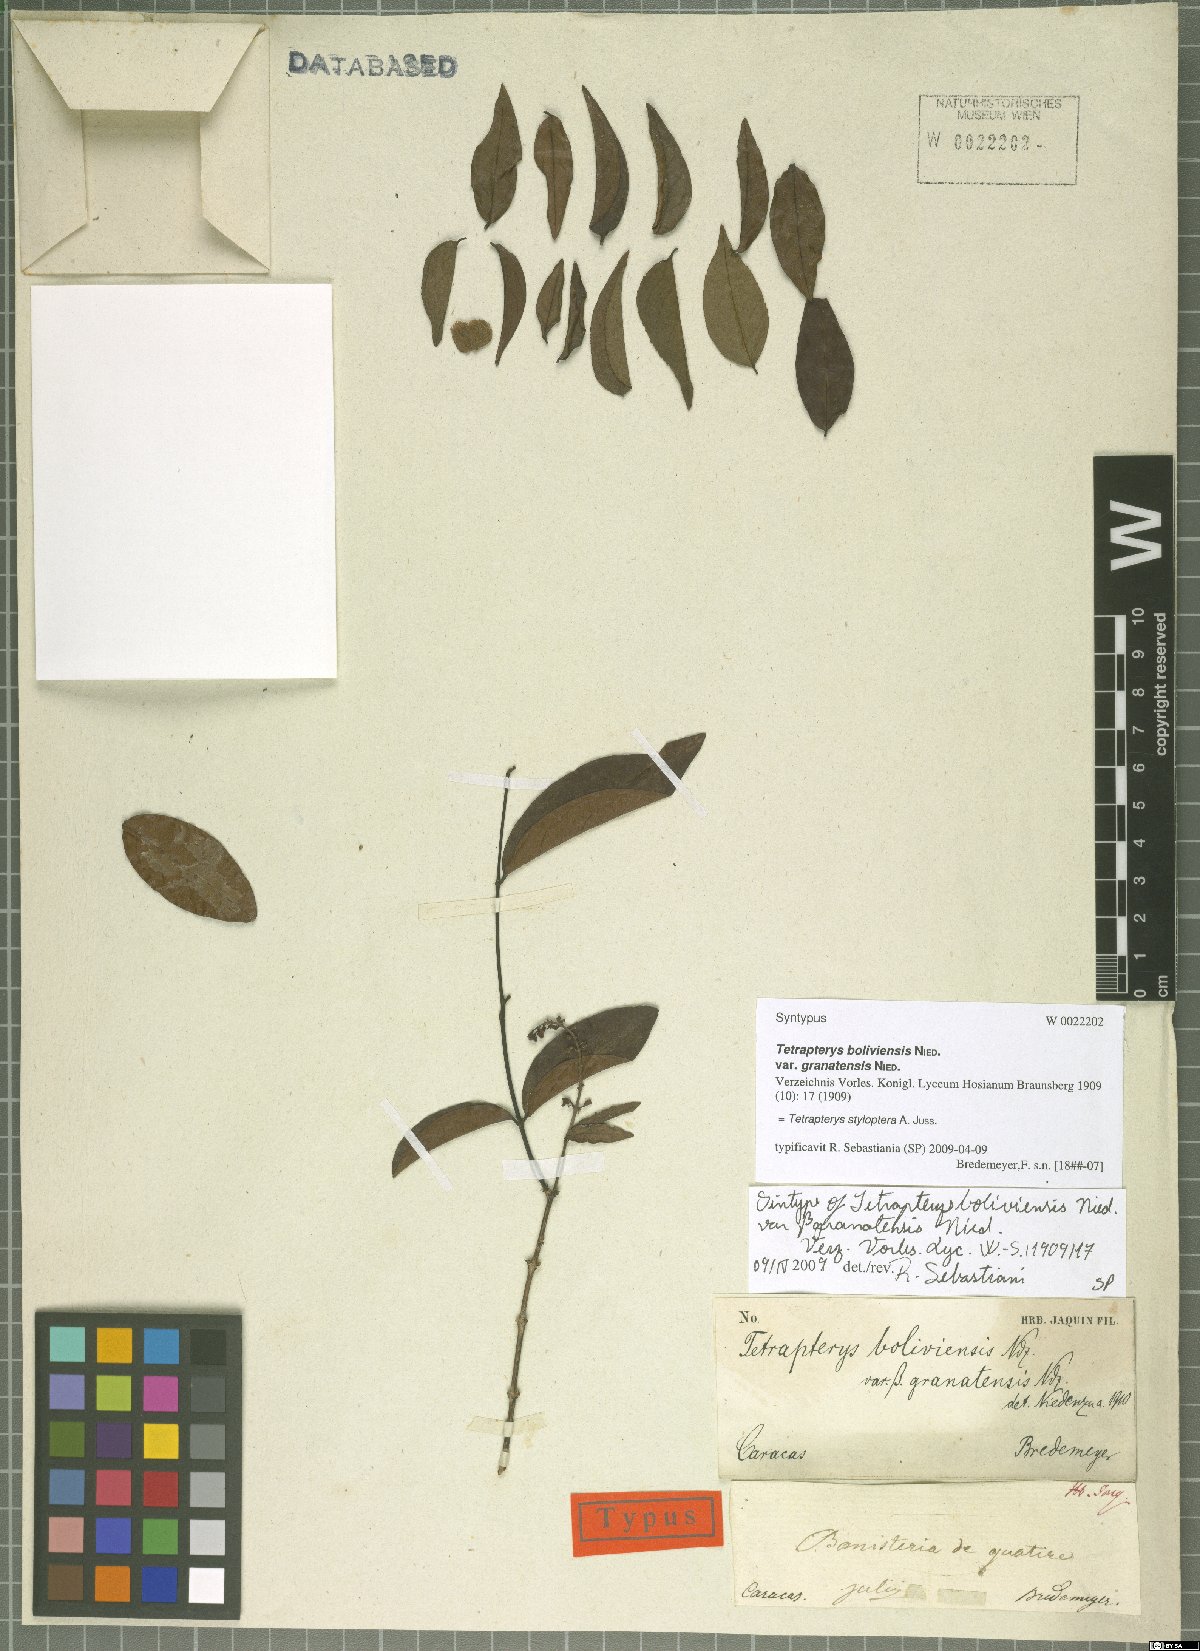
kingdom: Plantae
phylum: Tracheophyta
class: Magnoliopsida
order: Malpighiales
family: Malpighiaceae
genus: Glicophyllum
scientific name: Glicophyllum stylopterum
